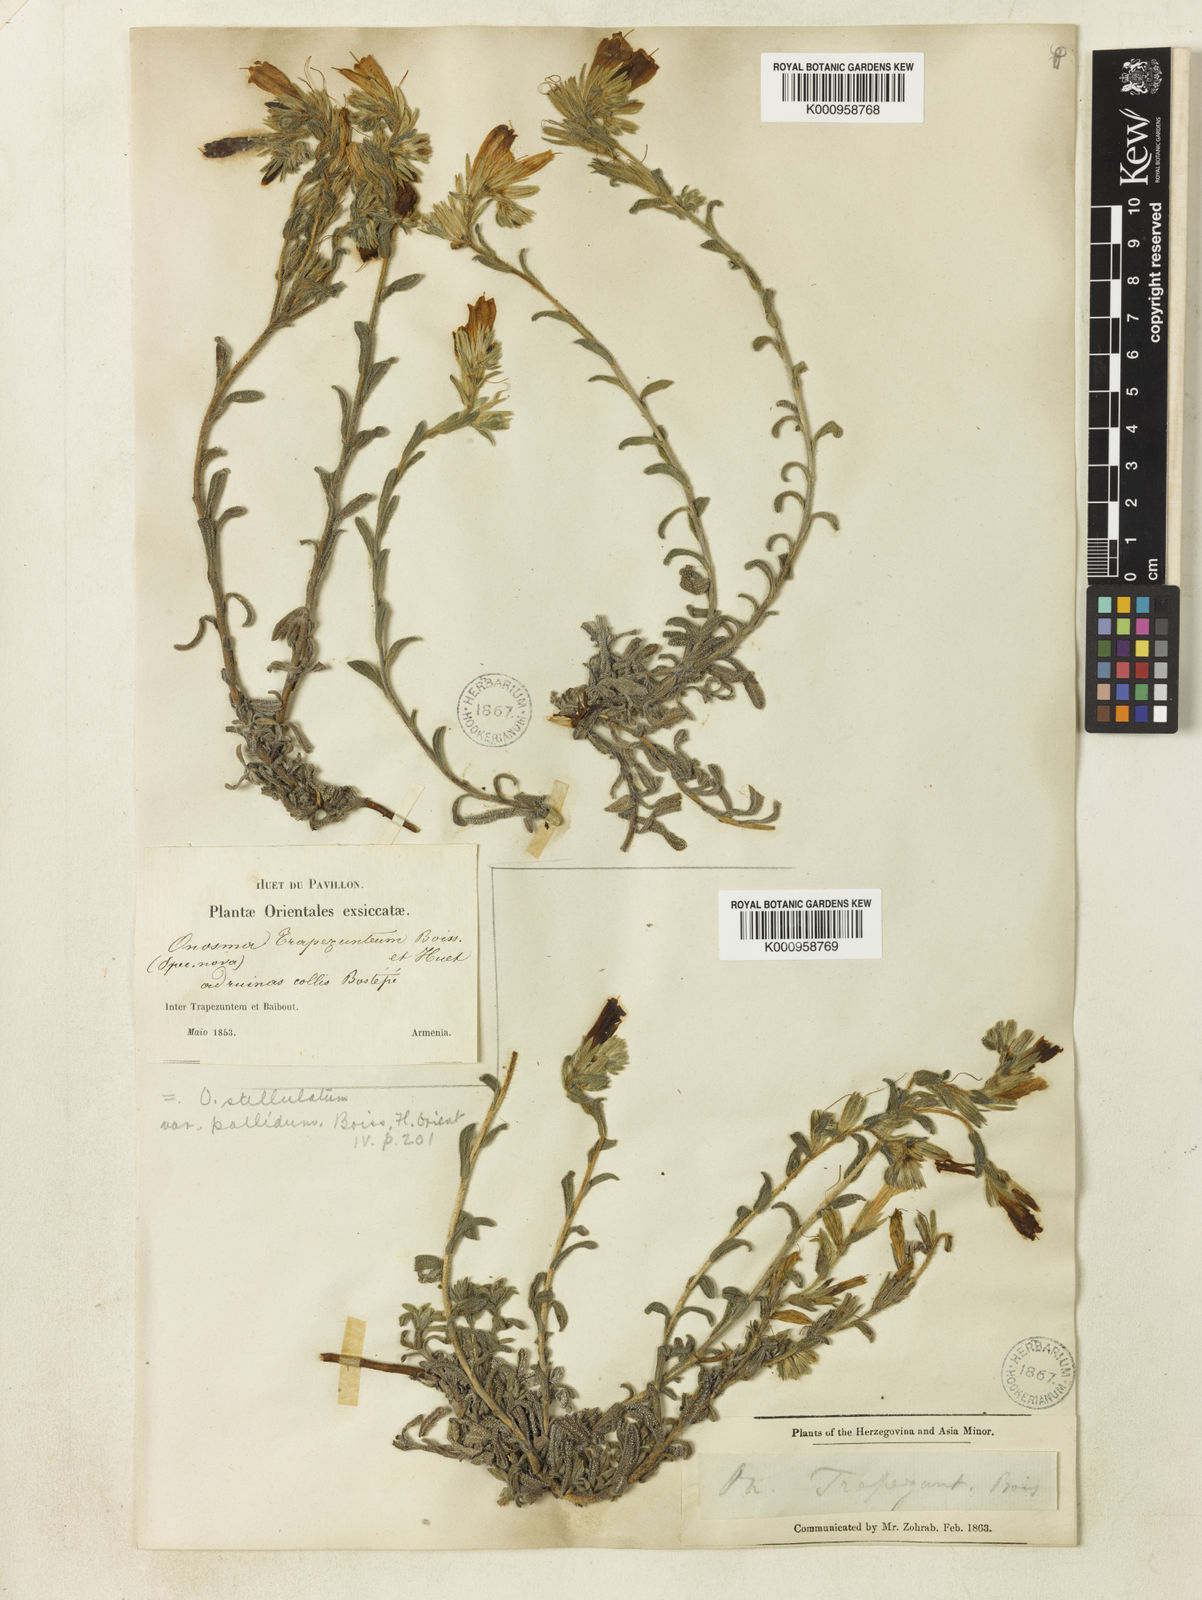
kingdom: Plantae
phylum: Tracheophyta
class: Magnoliopsida
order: Boraginales
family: Boraginaceae
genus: Onosma
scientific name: Onosma aucheriana
